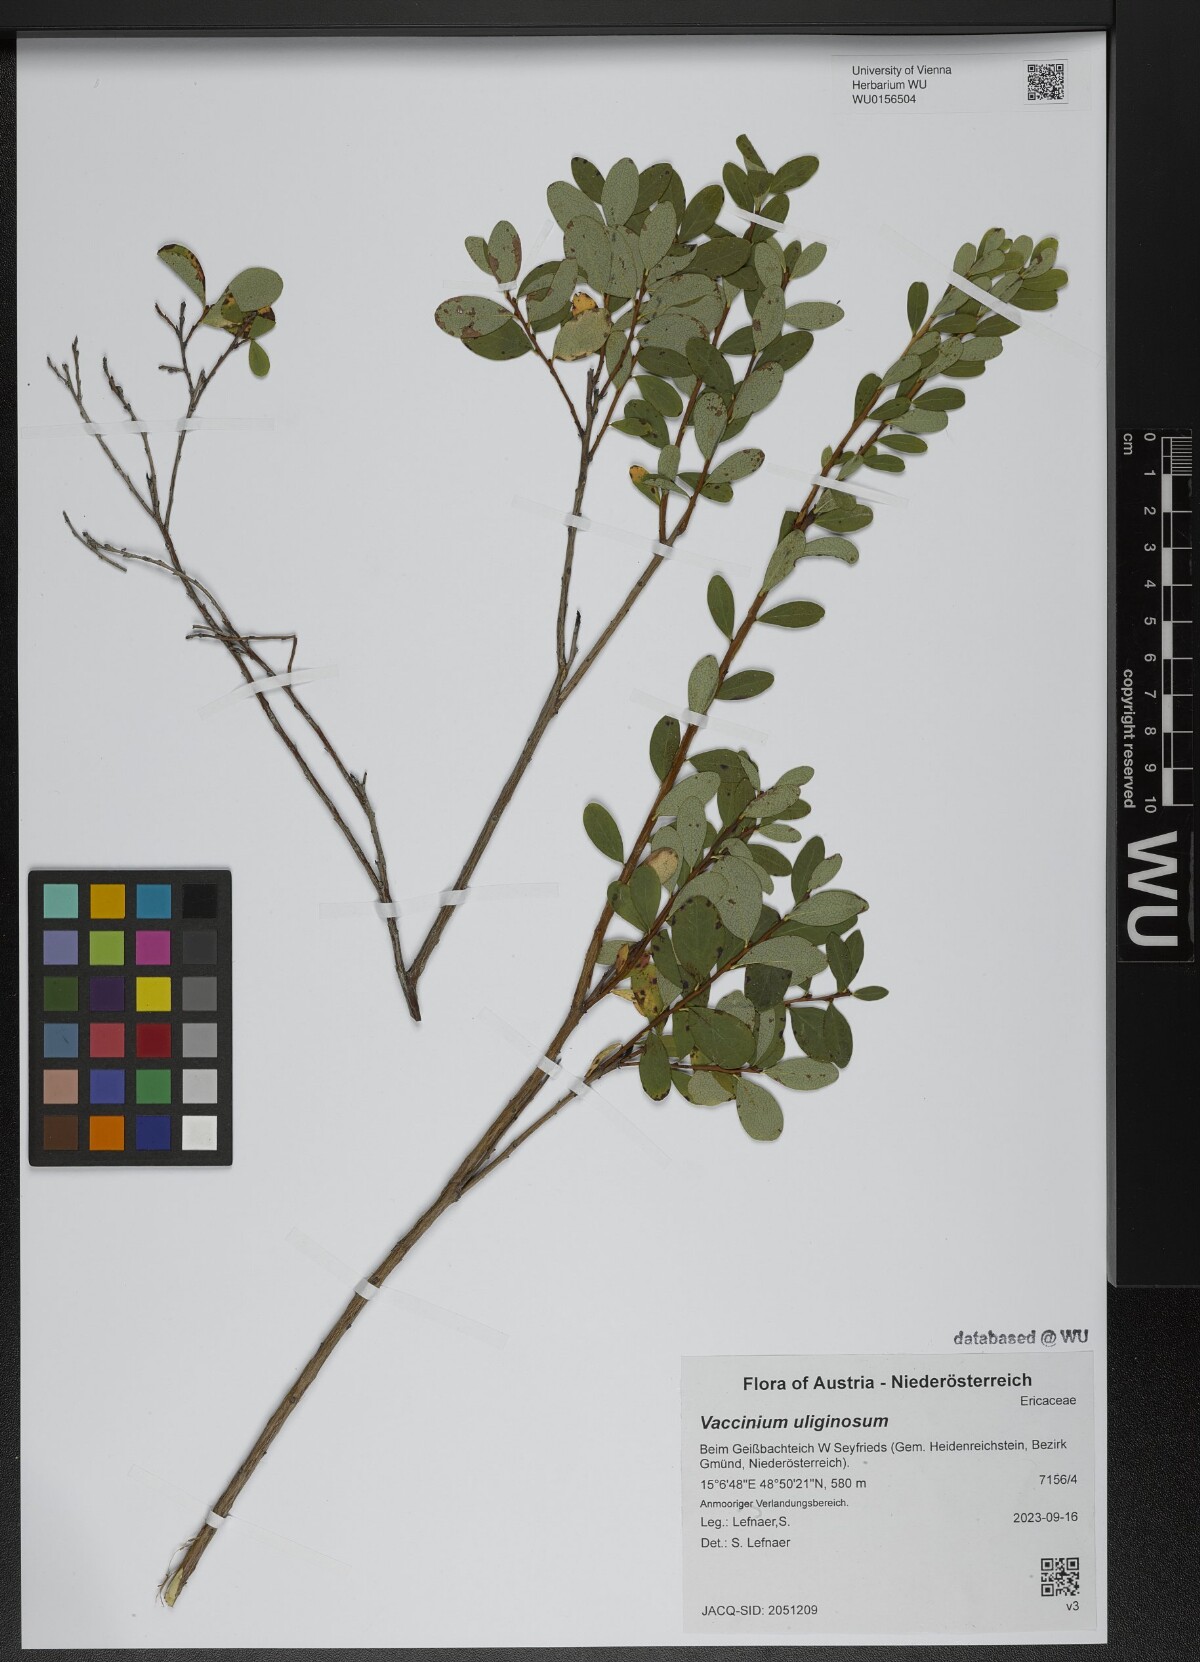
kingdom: Plantae
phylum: Tracheophyta
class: Magnoliopsida
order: Ericales
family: Ericaceae
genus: Vaccinium
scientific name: Vaccinium uliginosum
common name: Bog bilberry
